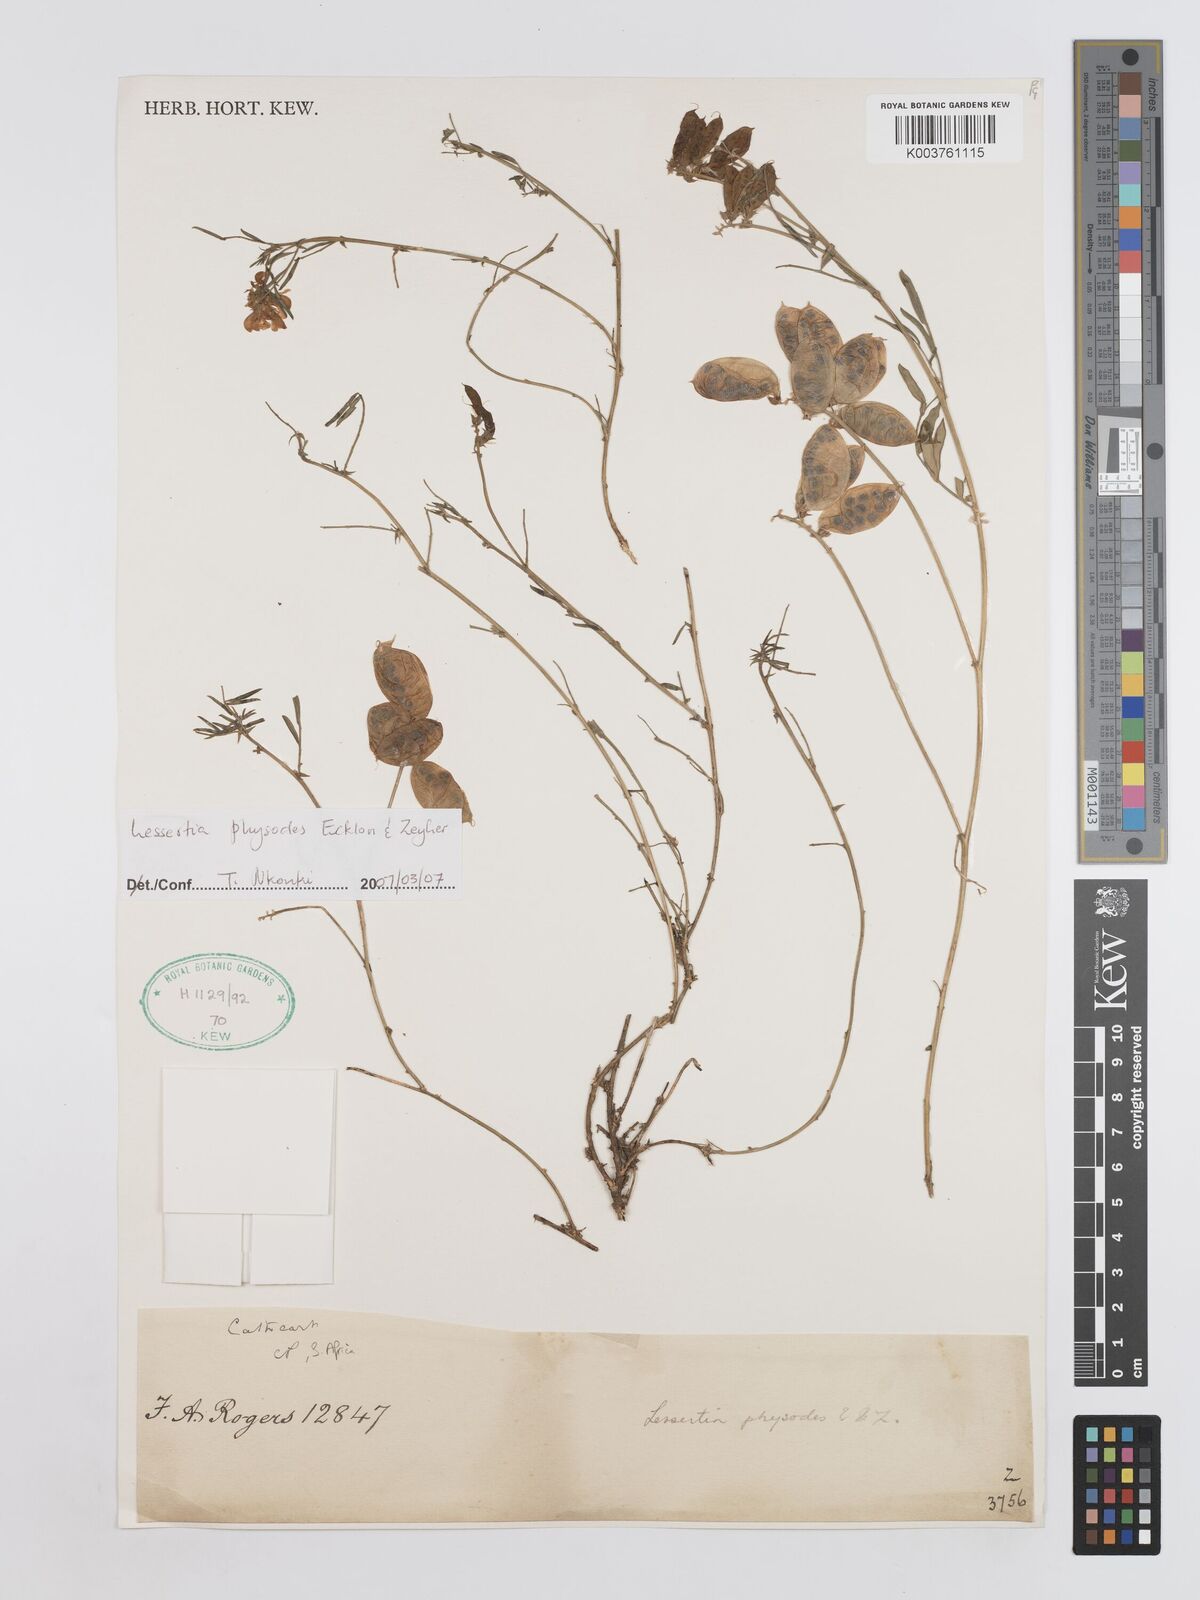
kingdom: Plantae
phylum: Tracheophyta
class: Magnoliopsida
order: Fabales
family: Fabaceae
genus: Lessertia
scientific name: Lessertia physodes
